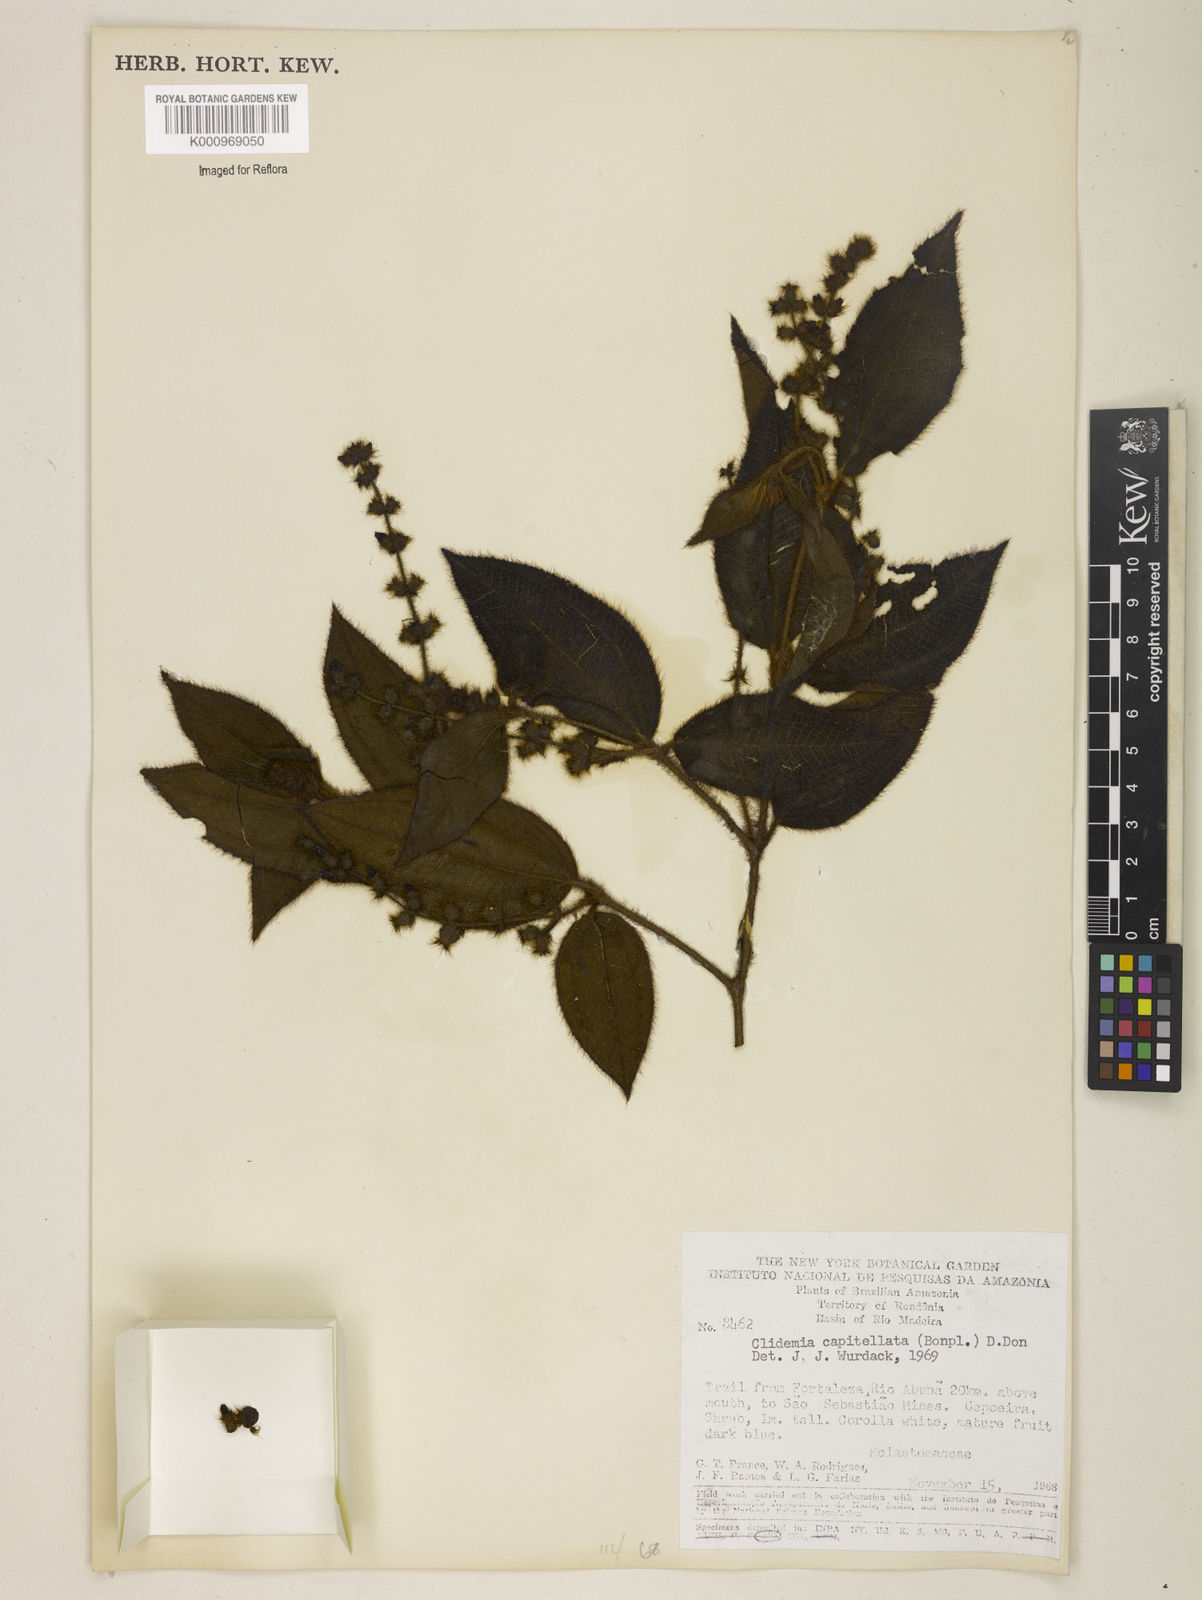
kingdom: Plantae
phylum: Tracheophyta
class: Magnoliopsida
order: Myrtales
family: Melastomataceae
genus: Miconia
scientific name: Miconia dependens
